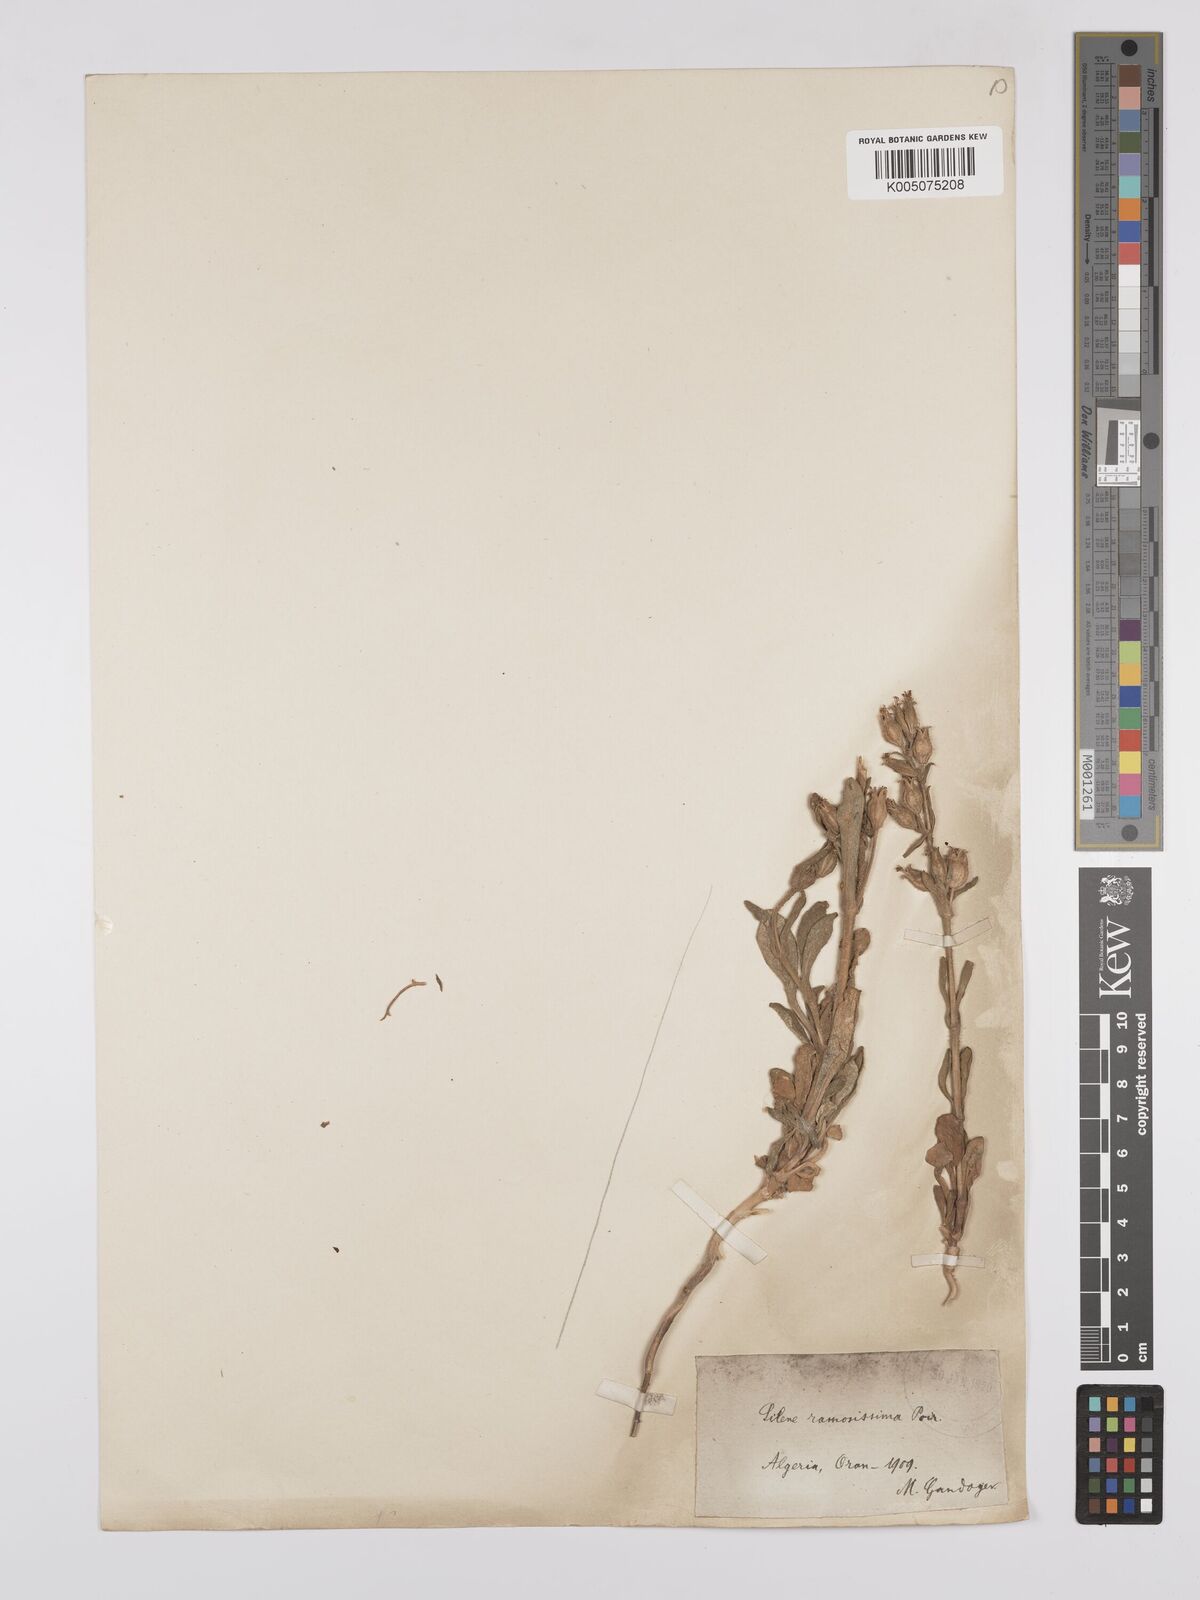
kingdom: Plantae
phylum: Tracheophyta
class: Magnoliopsida
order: Caryophyllales
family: Caryophyllaceae
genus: Silene
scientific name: Silene ramosissima
